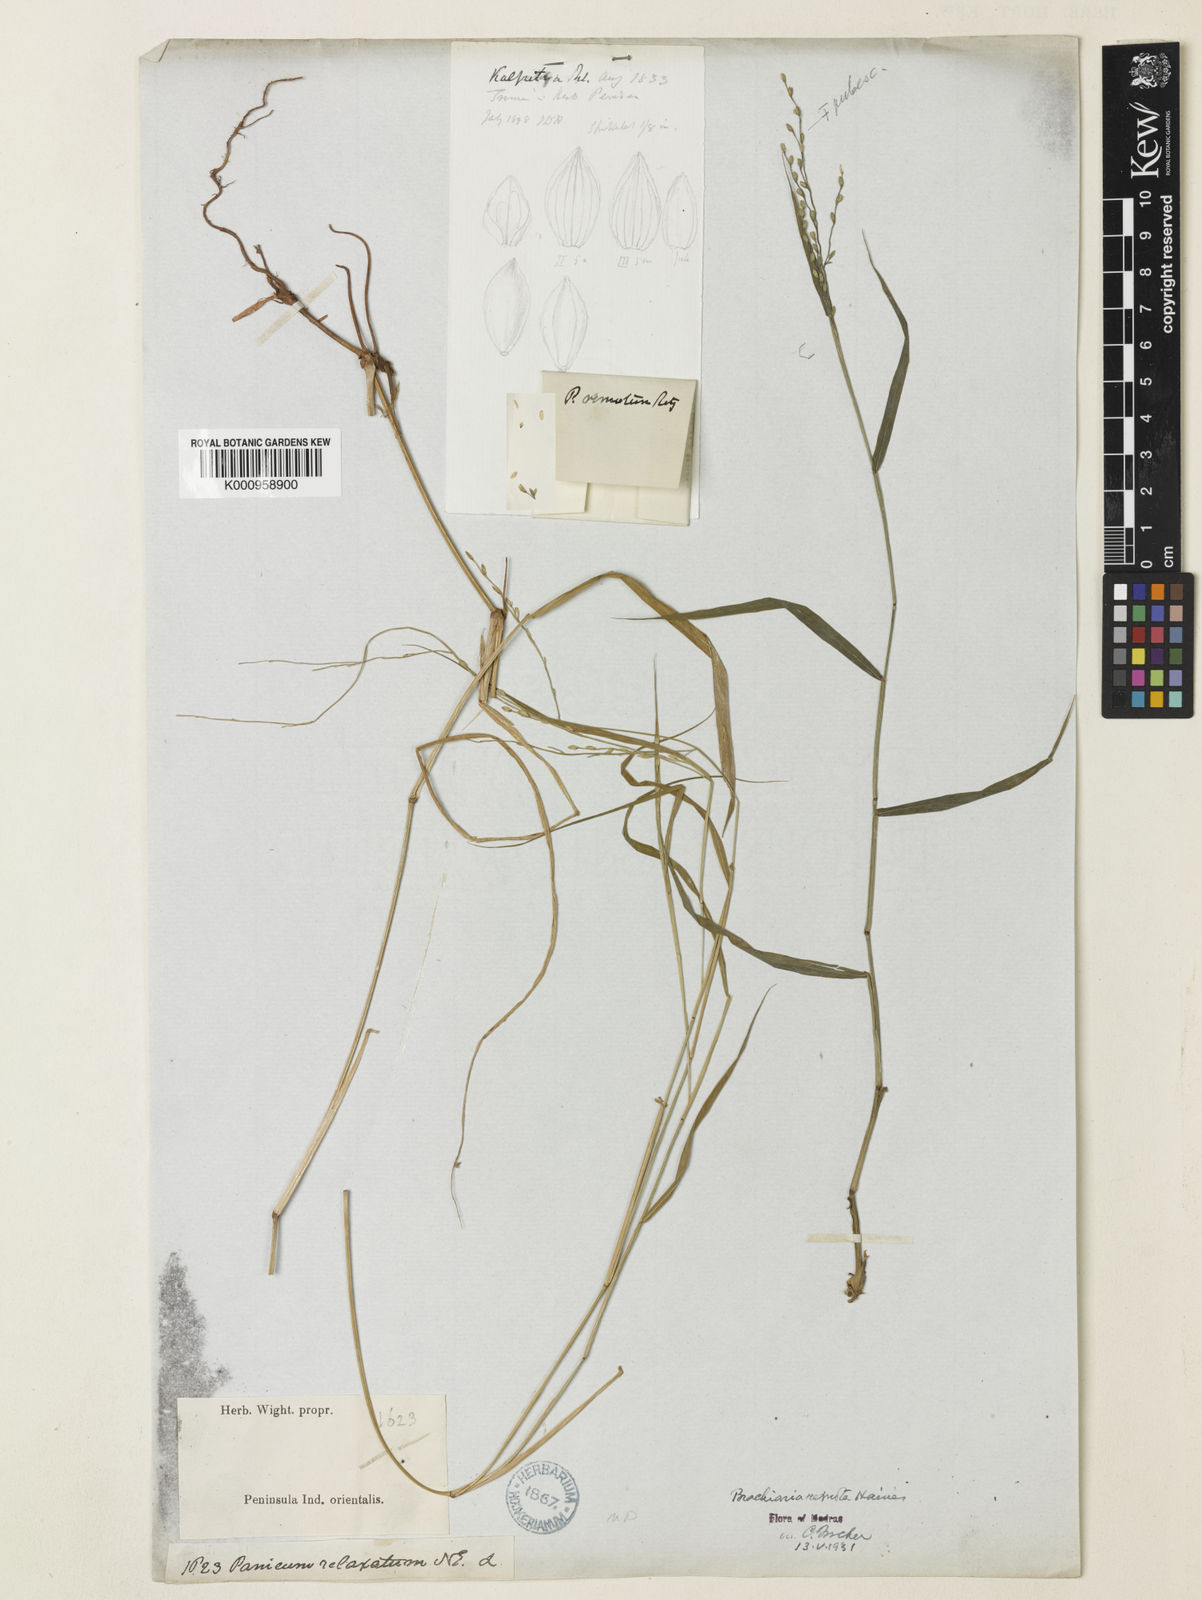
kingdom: Plantae
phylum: Tracheophyta
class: Liliopsida
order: Poales
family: Poaceae
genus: Urochloa
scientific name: Urochloa Brachiaria remota
